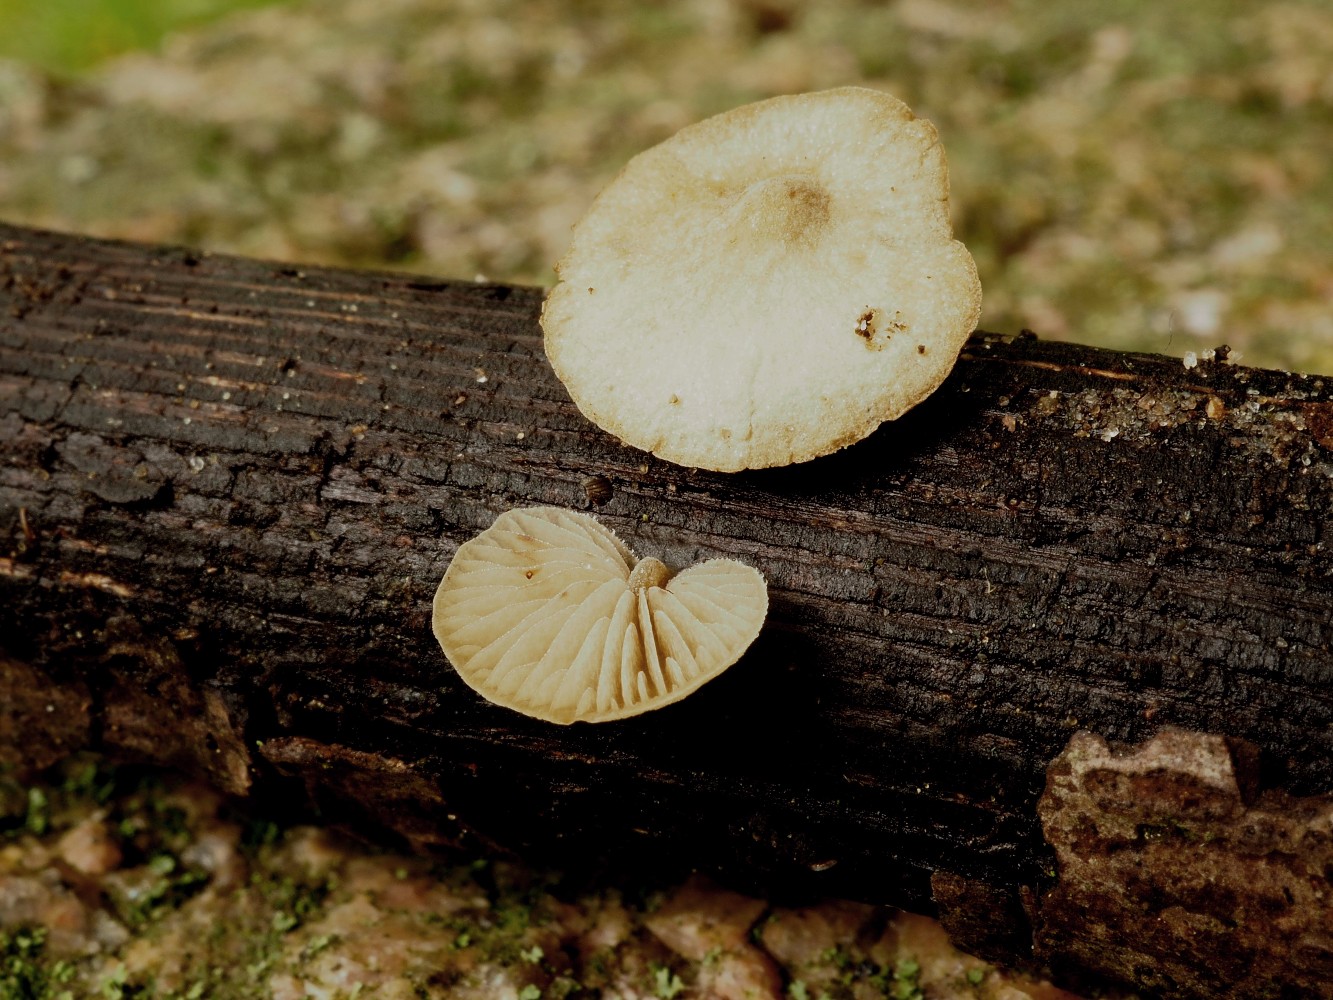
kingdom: Fungi
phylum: Basidiomycota
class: Agaricomycetes
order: Agaricales
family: Crepidotaceae
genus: Simocybe
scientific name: Simocybe haustellaris
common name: skæv skyggehat
